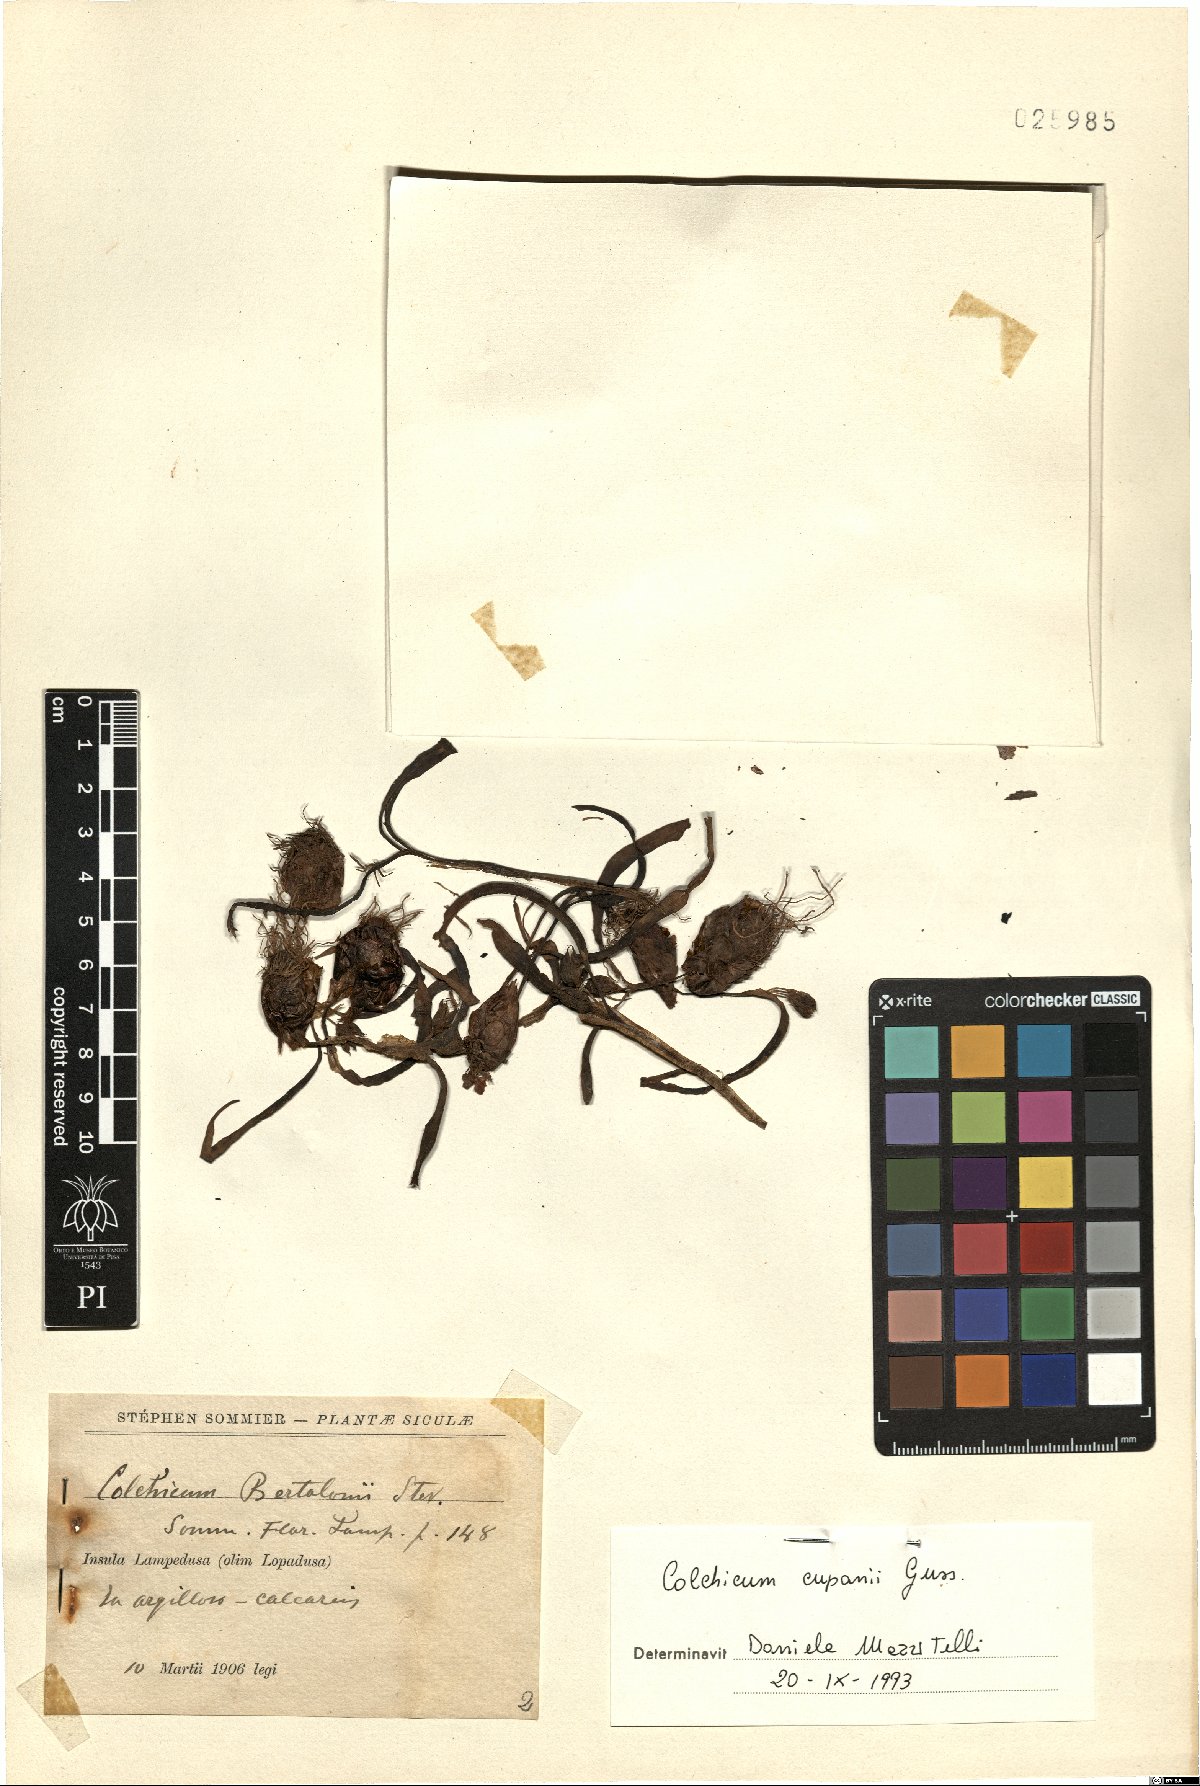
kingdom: Plantae
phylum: Tracheophyta
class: Liliopsida
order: Liliales
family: Colchicaceae
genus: Colchicum
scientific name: Colchicum cupanii
